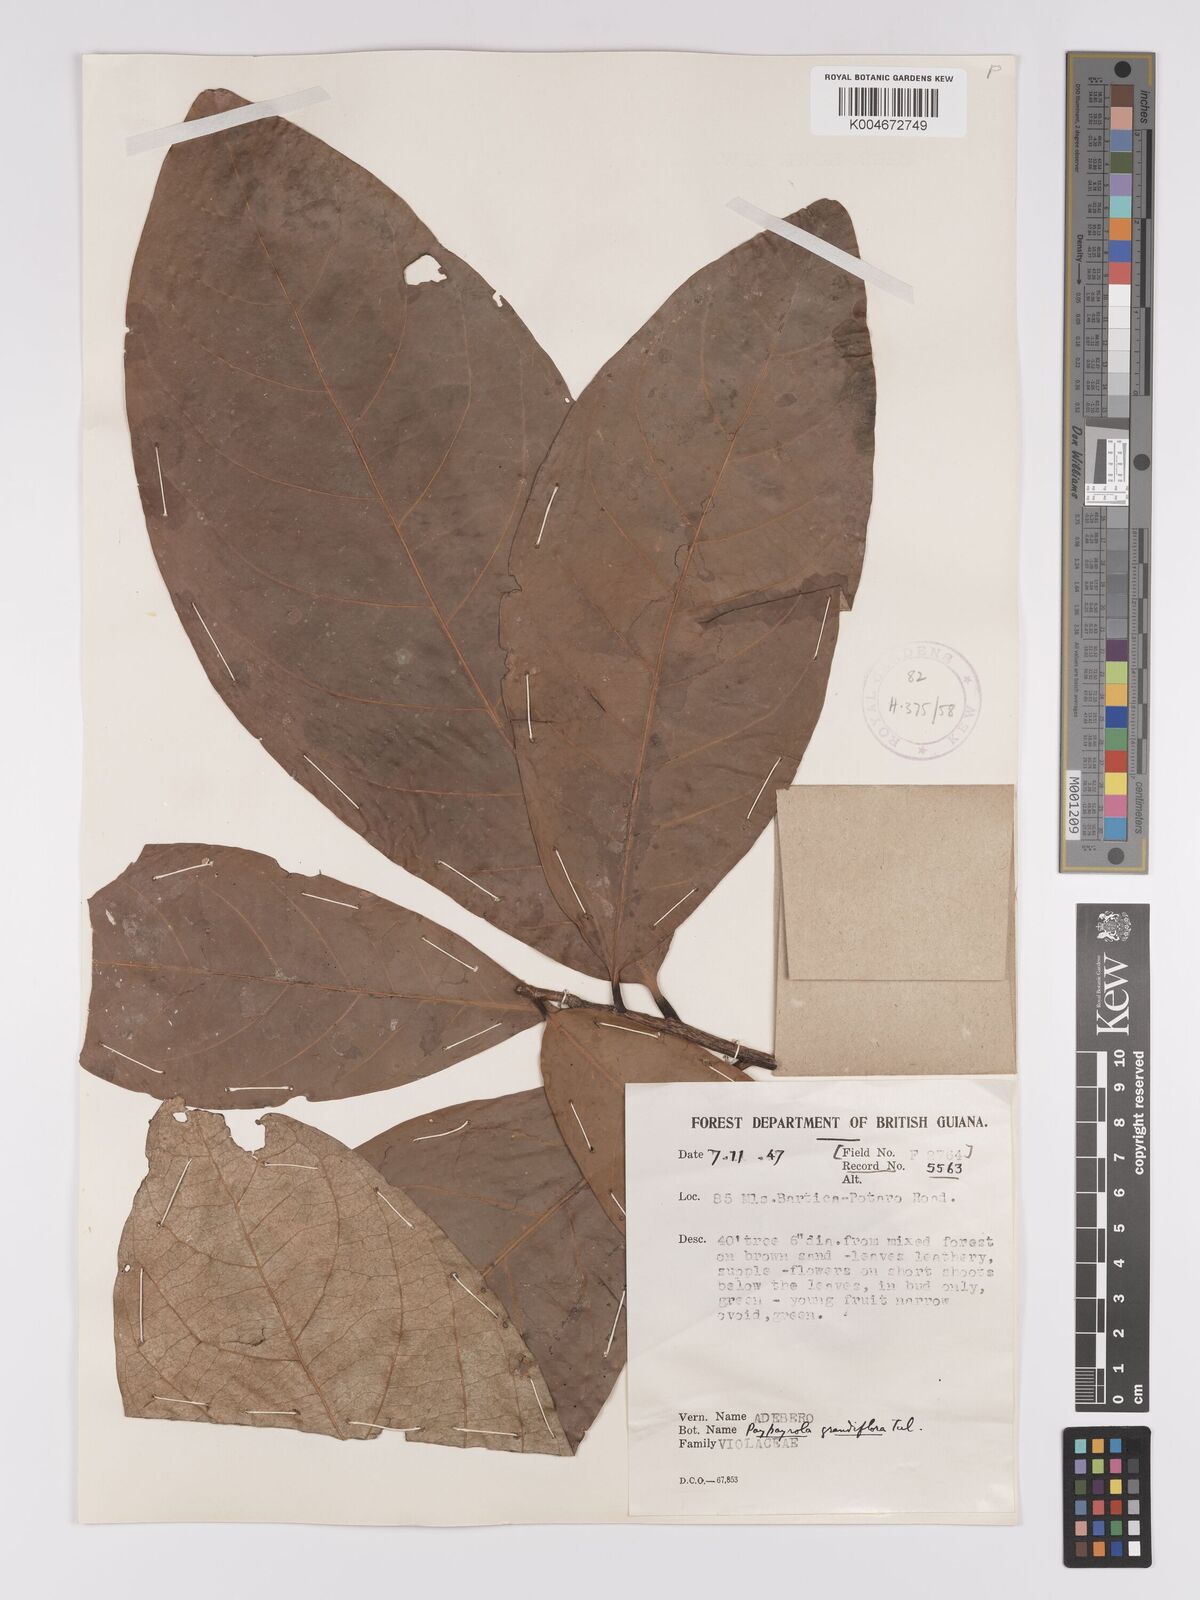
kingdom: Plantae
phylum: Tracheophyta
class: Magnoliopsida
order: Malpighiales
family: Violaceae
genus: Paypayrola
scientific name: Paypayrola grandiflora
